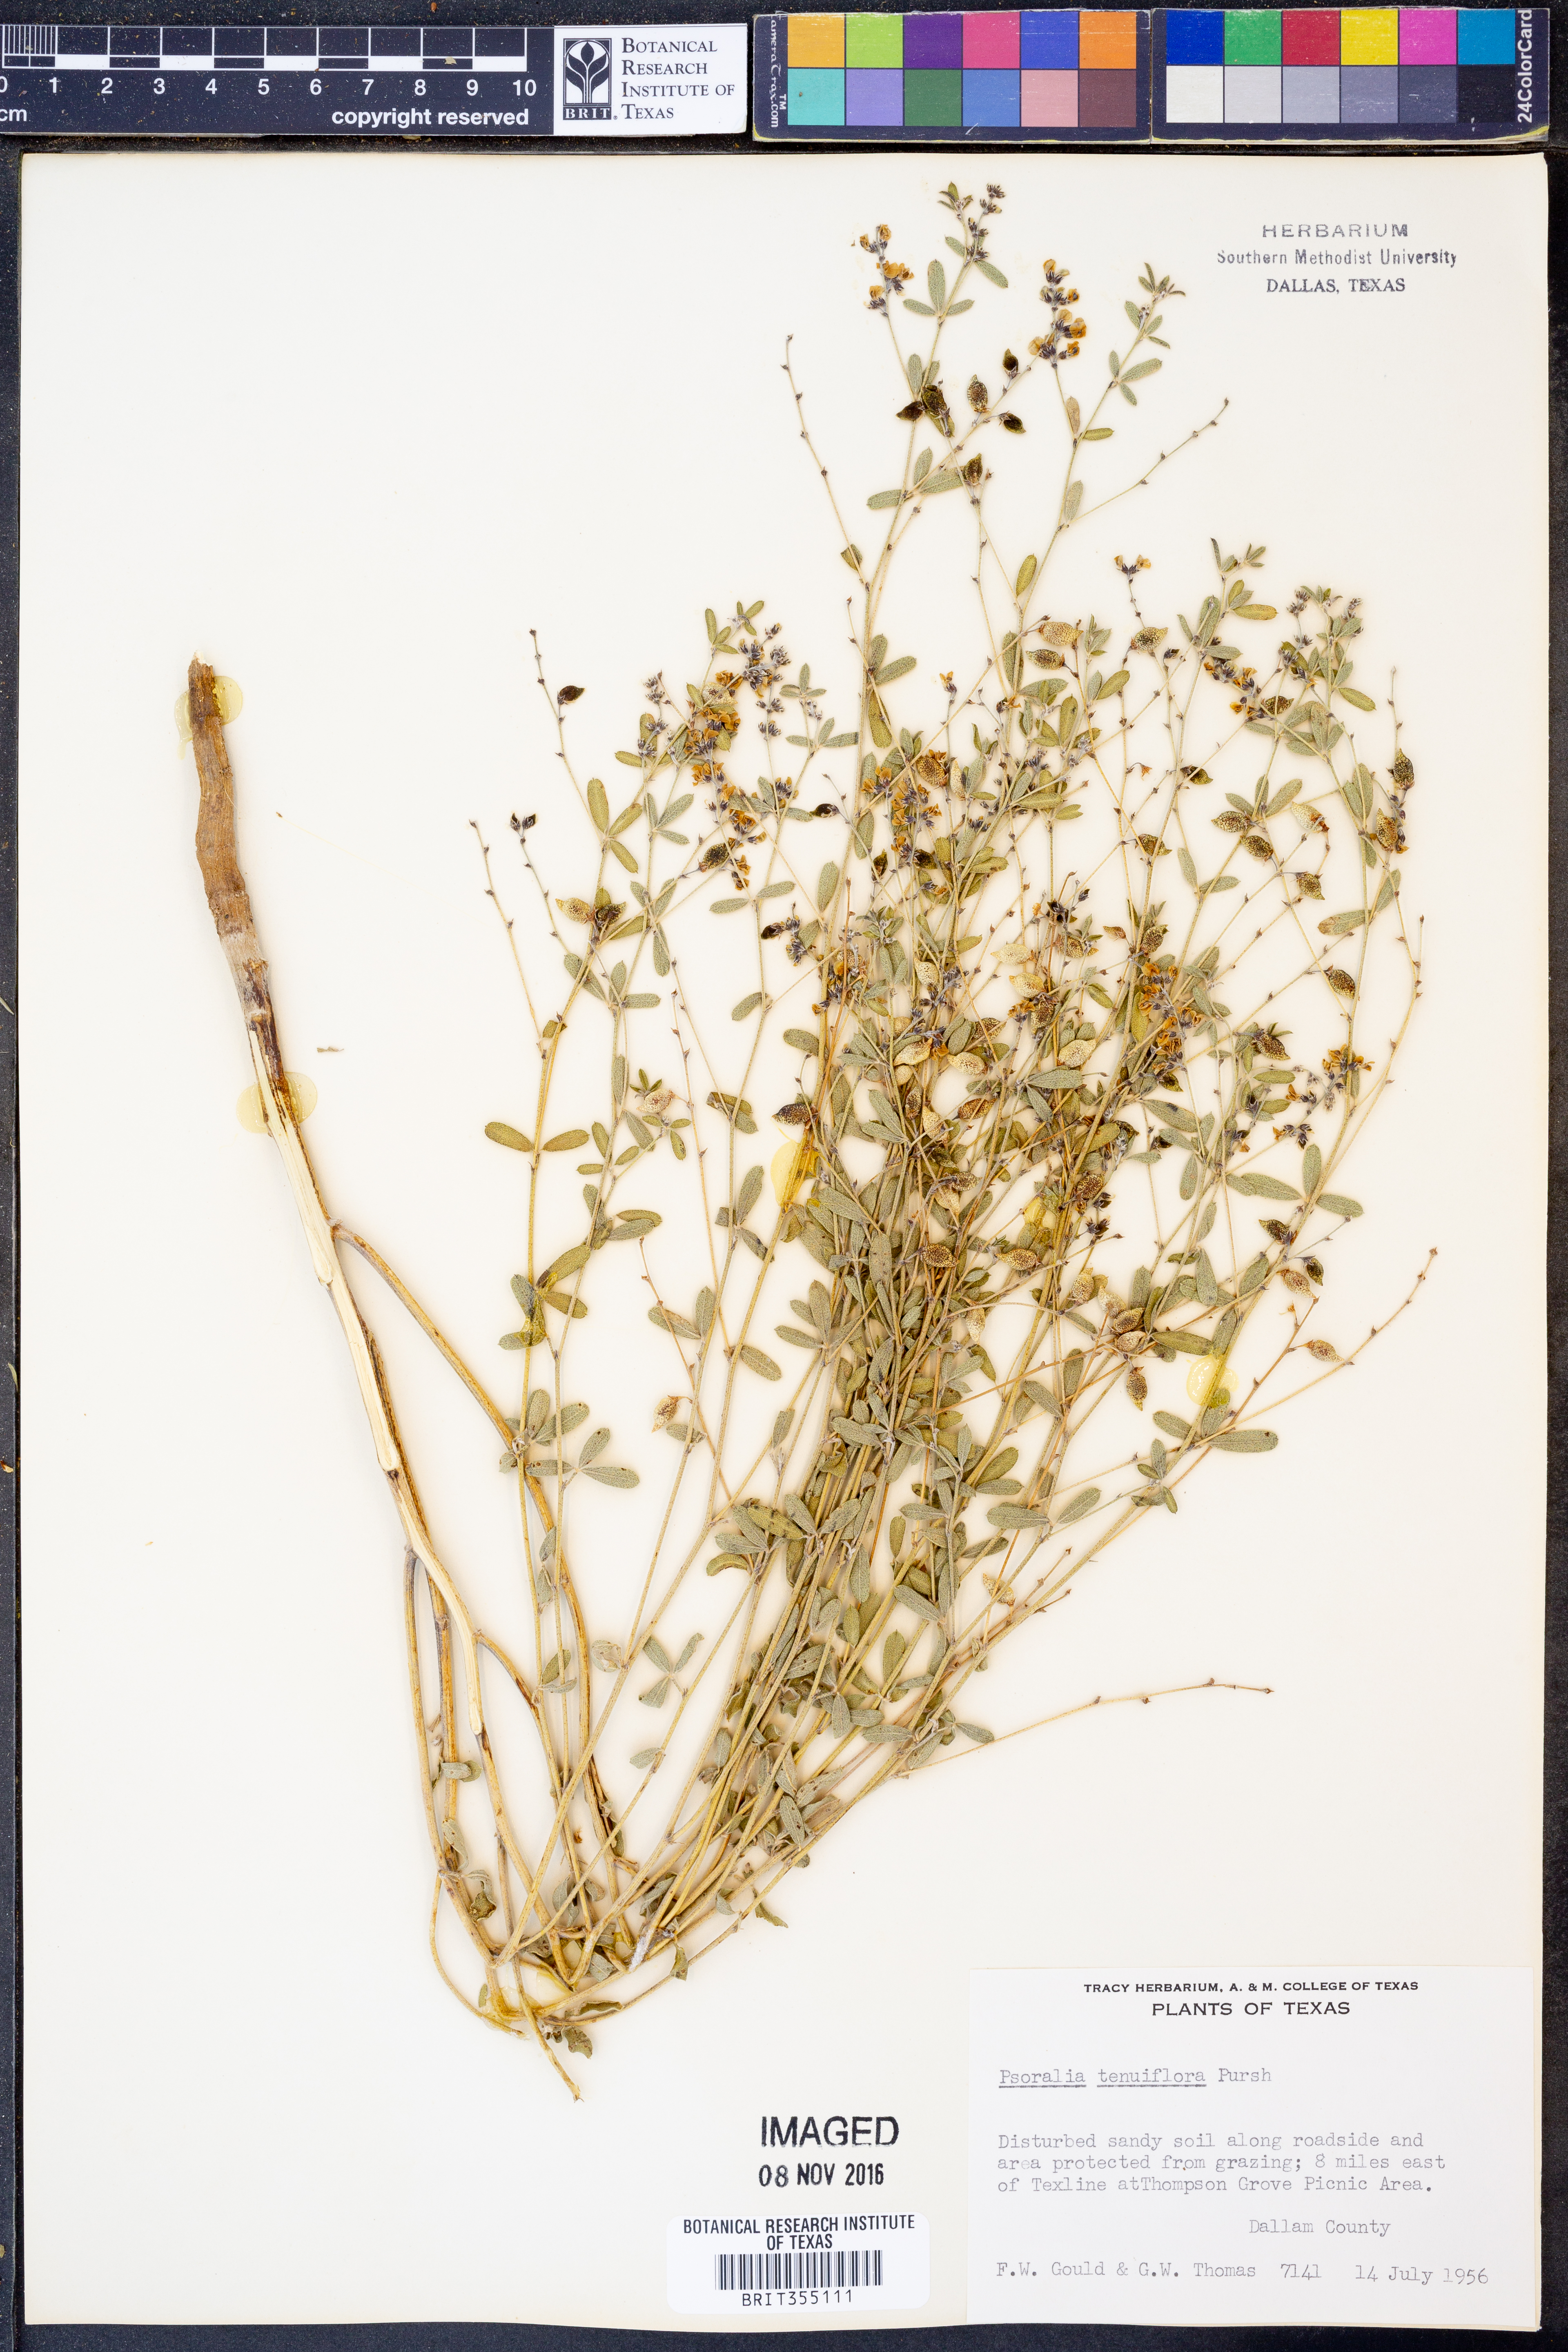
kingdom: Plantae
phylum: Tracheophyta
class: Magnoliopsida
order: Fabales
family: Fabaceae
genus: Pediomelum
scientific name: Pediomelum tenuiflorum
